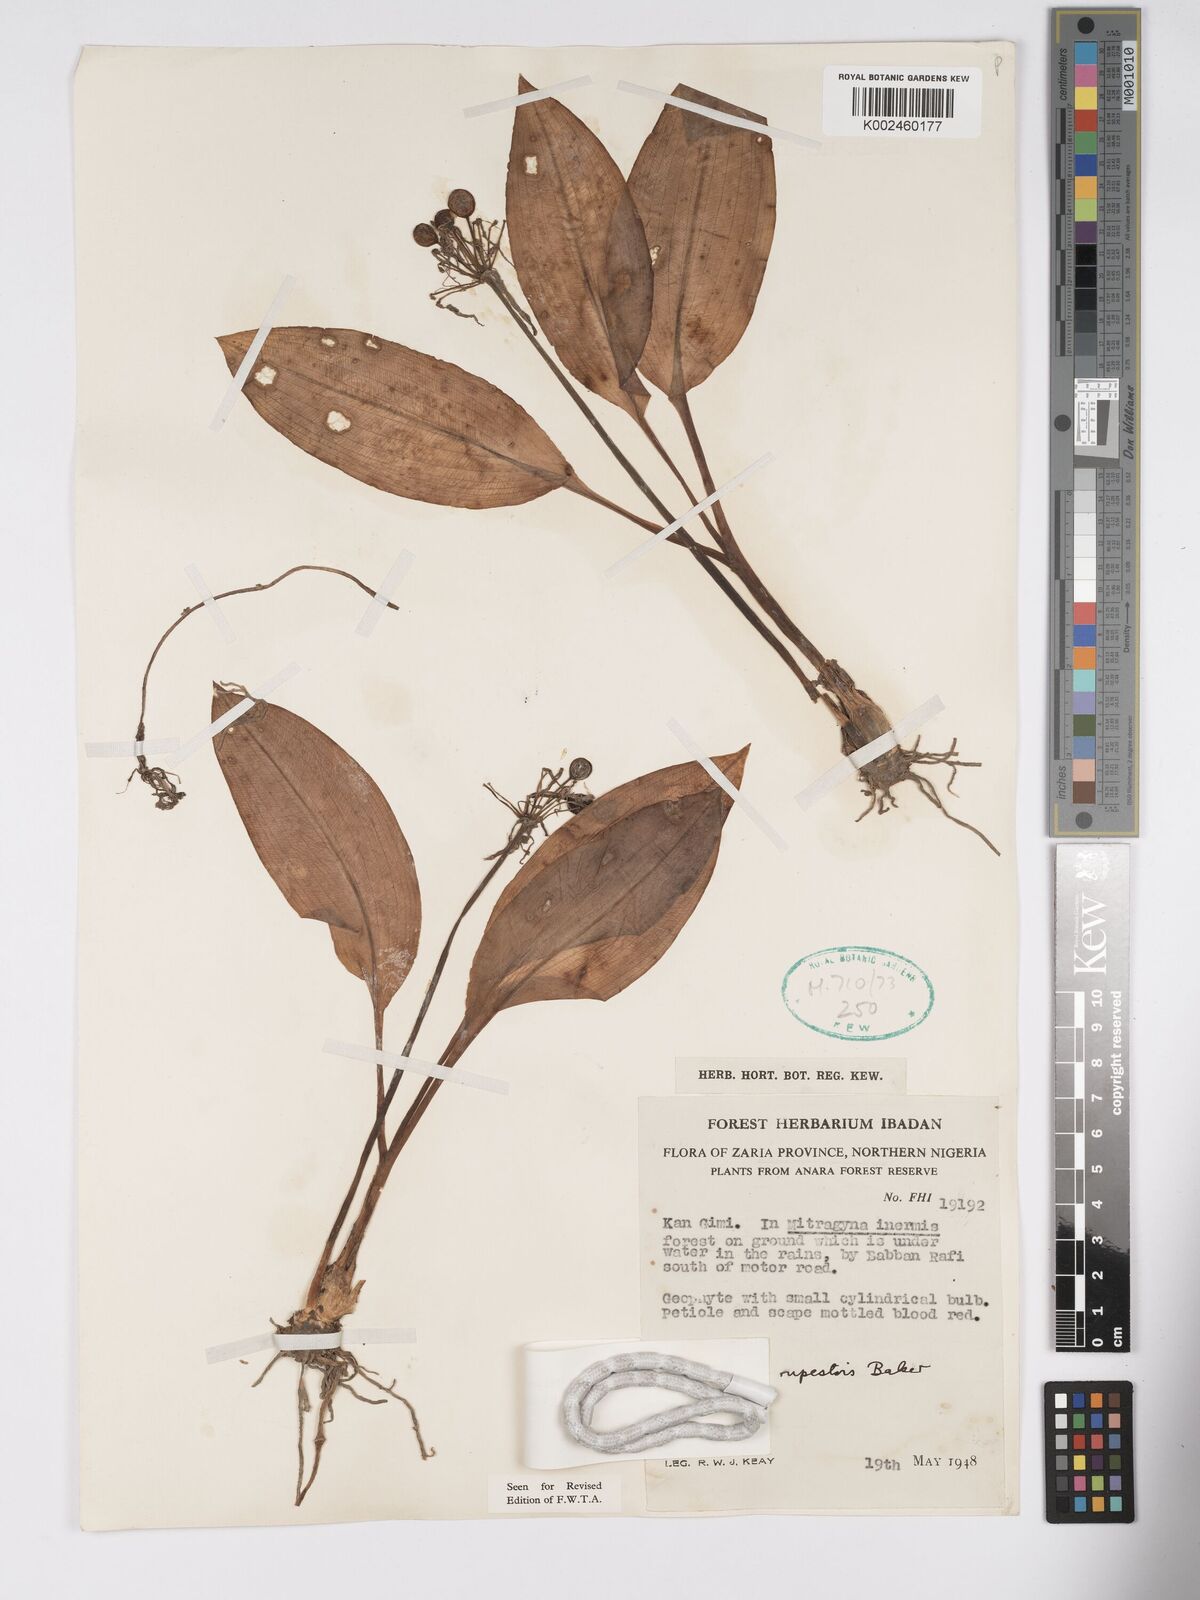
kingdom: Plantae
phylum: Tracheophyta
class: Liliopsida
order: Asparagales
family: Amaryllidaceae
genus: Scadoxus
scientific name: Scadoxus multiflorus
